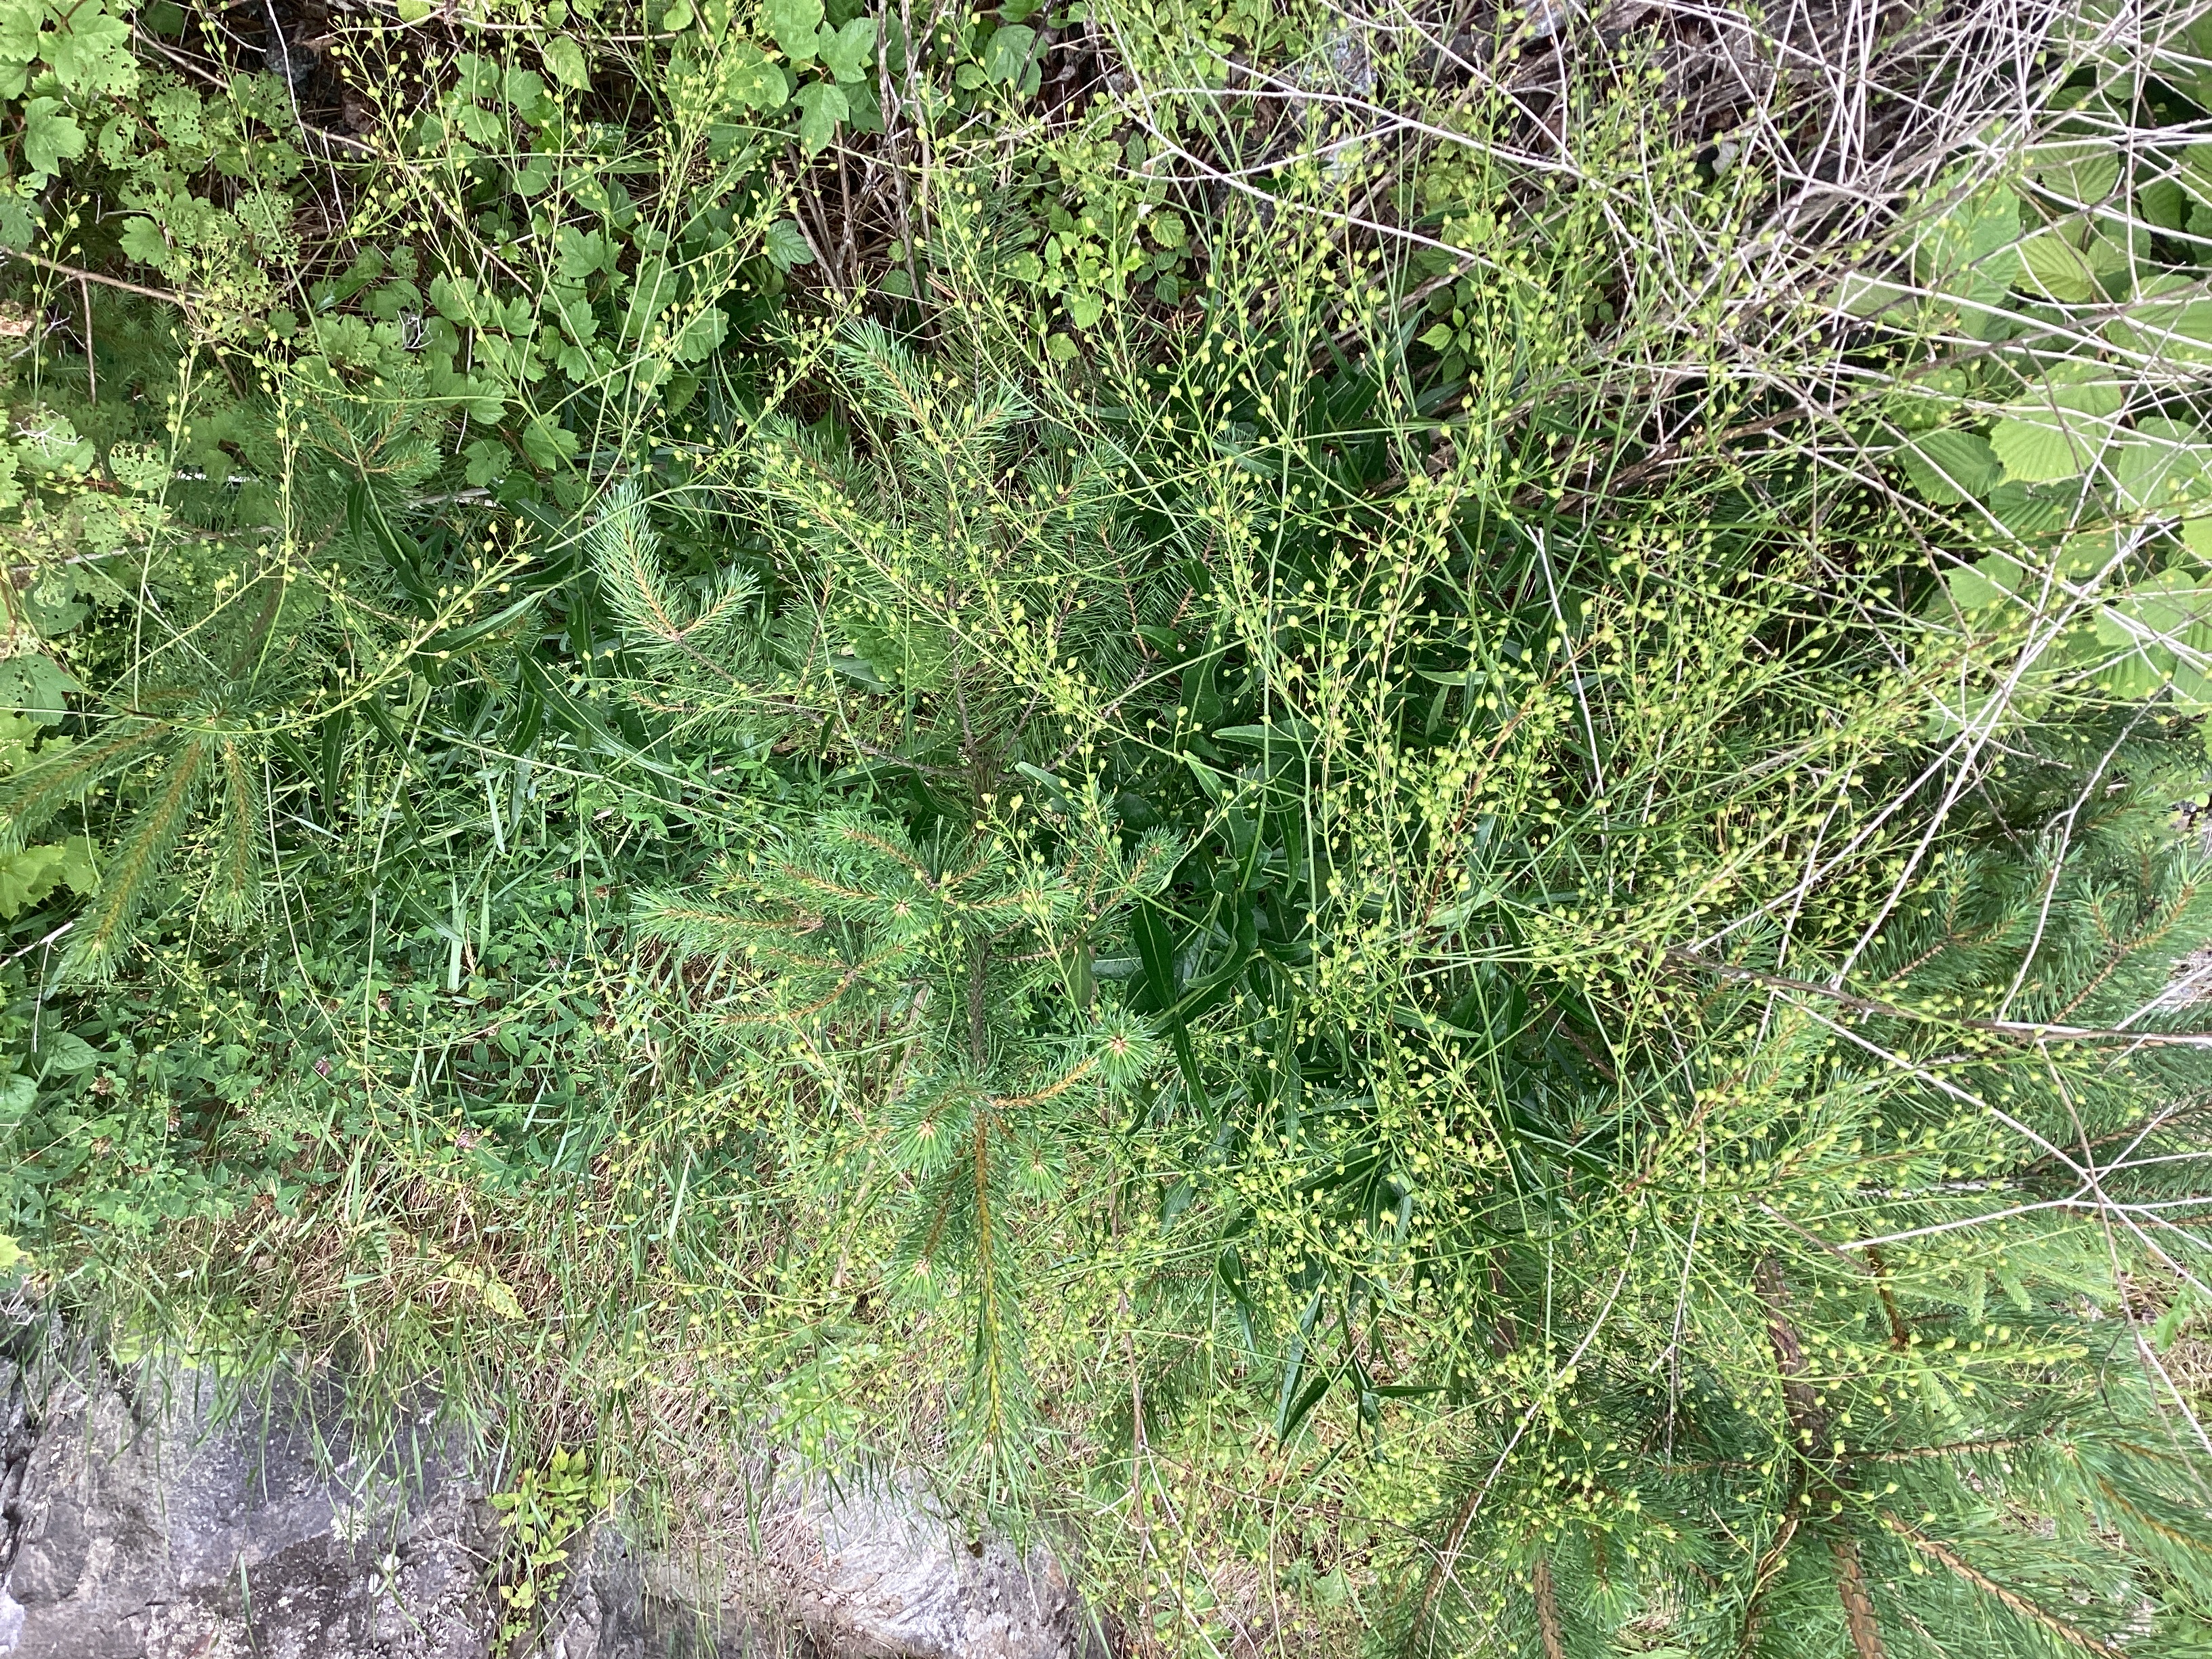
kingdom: Plantae
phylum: Tracheophyta
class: Magnoliopsida
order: Brassicales
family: Brassicaceae
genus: Bunias
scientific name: Bunias orientalis
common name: russekål
